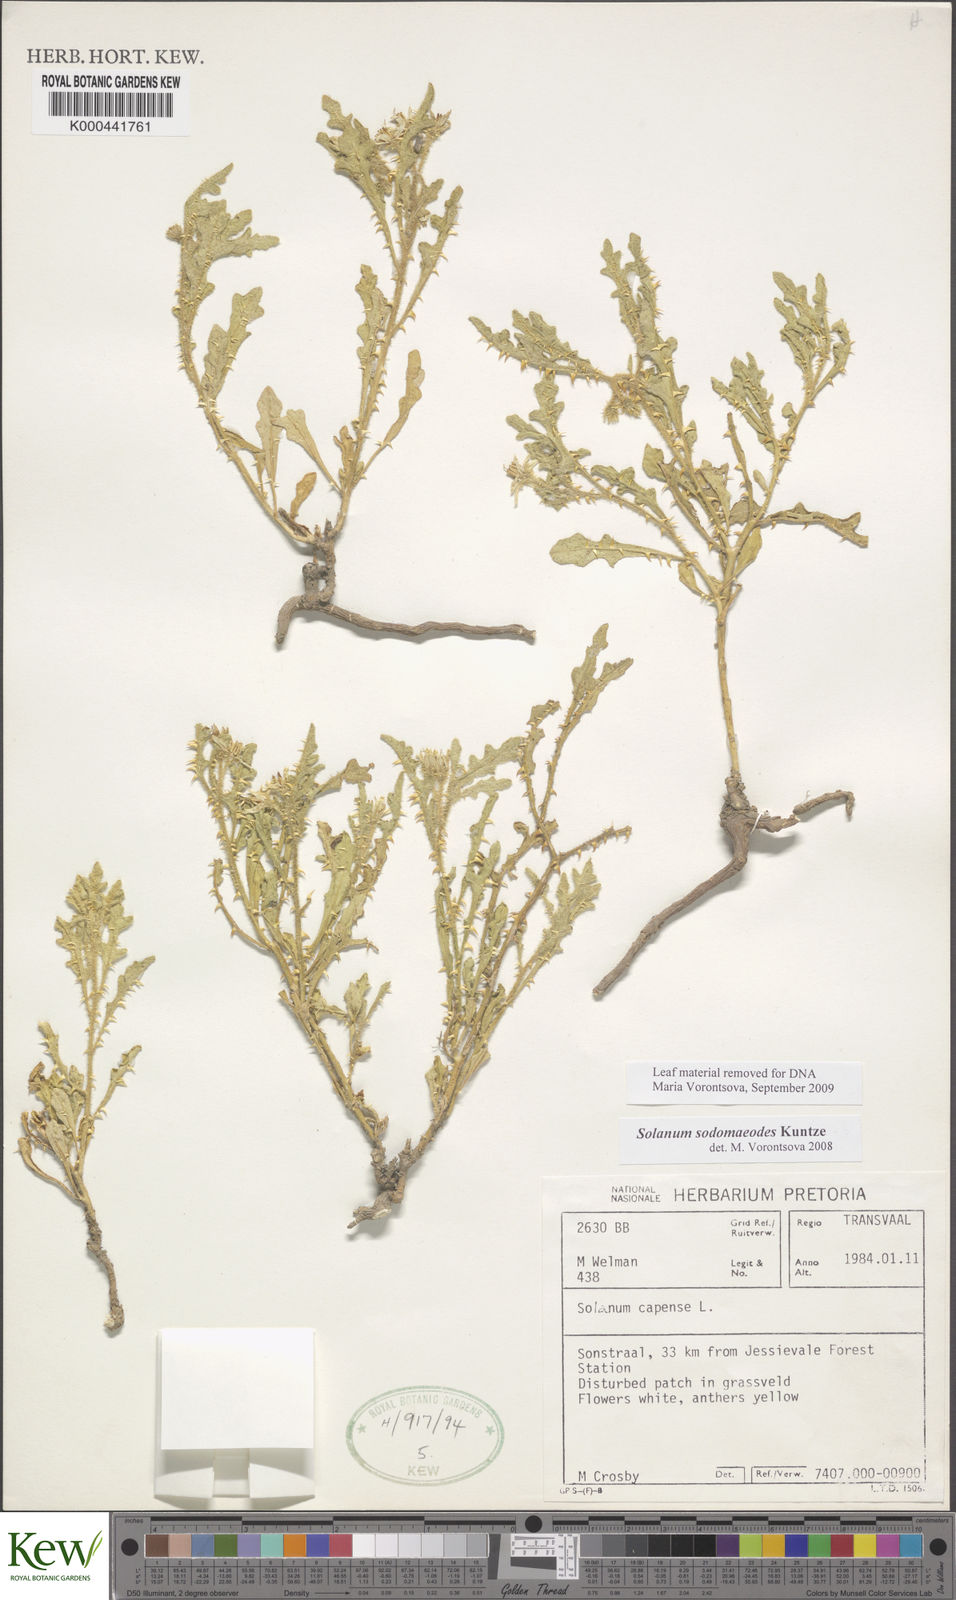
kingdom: Plantae
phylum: Tracheophyta
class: Magnoliopsida
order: Solanales
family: Solanaceae
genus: Solanum
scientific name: Solanum
